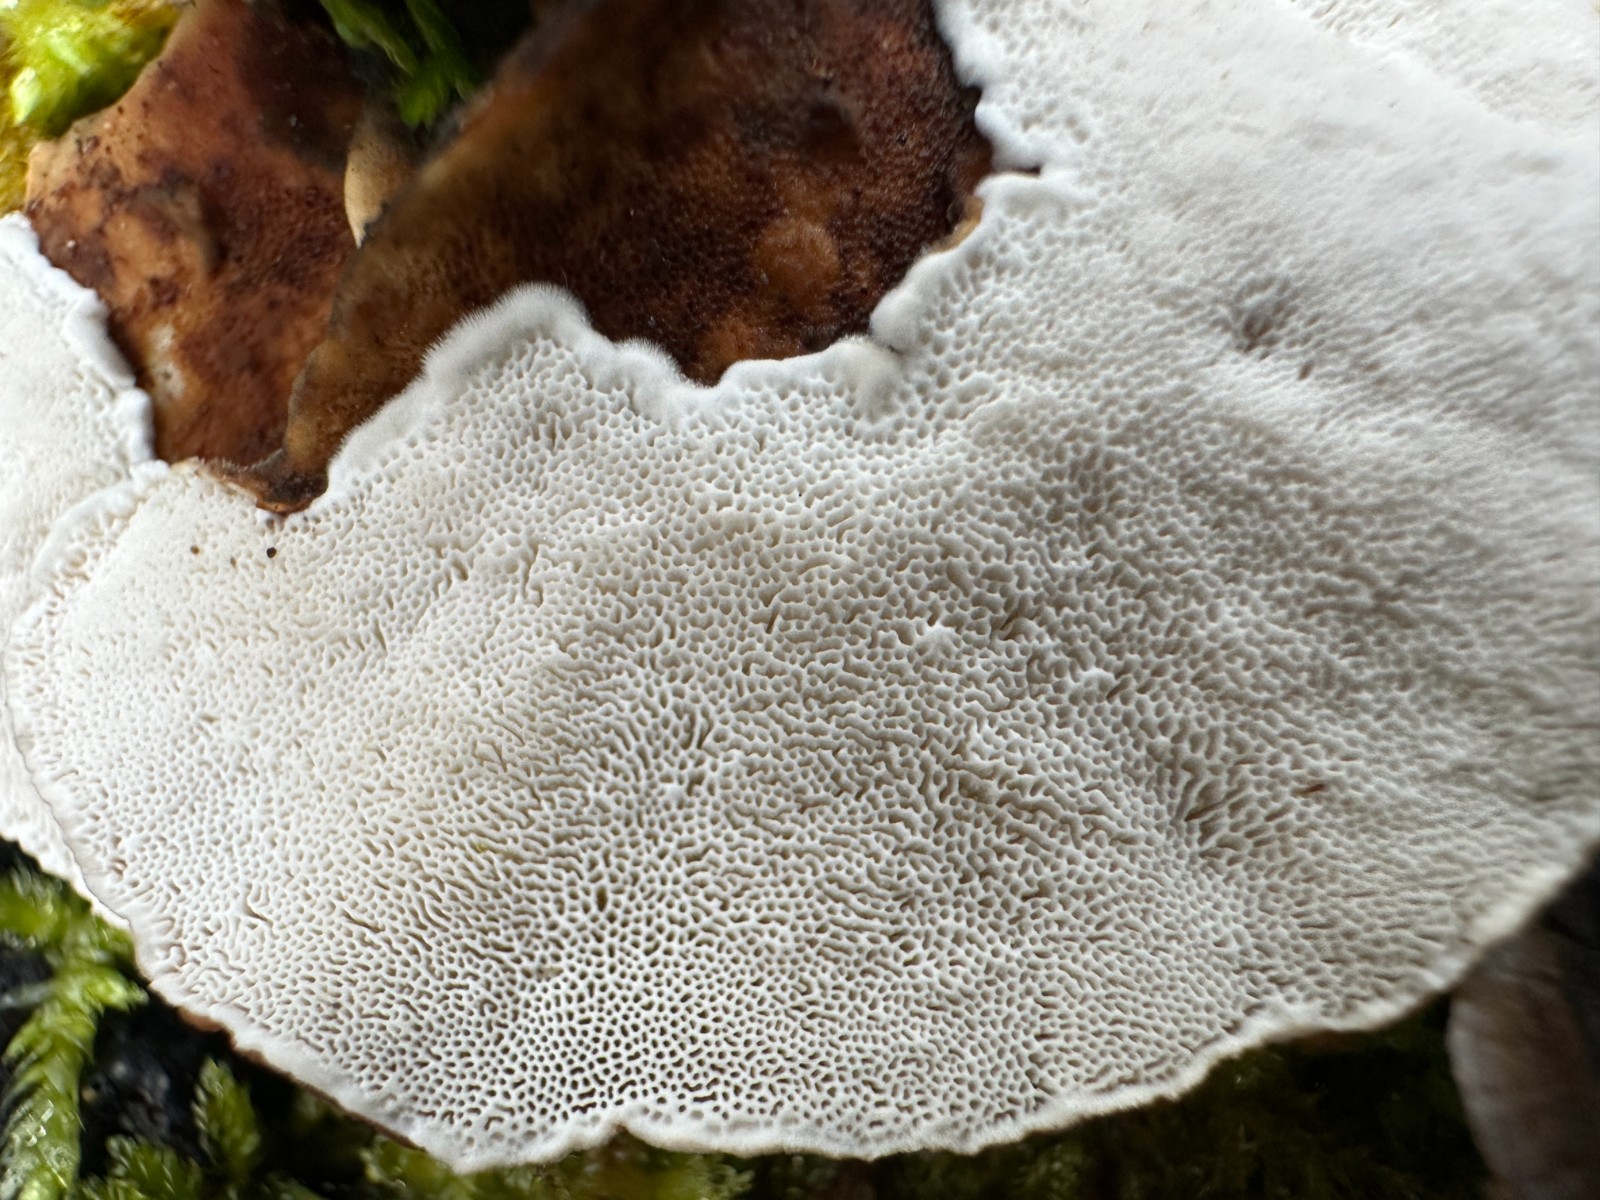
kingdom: Fungi
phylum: Basidiomycota
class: Agaricomycetes
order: Polyporales
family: Polyporaceae
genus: Trametes
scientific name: Trametes versicolor
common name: broget læderporesvamp
